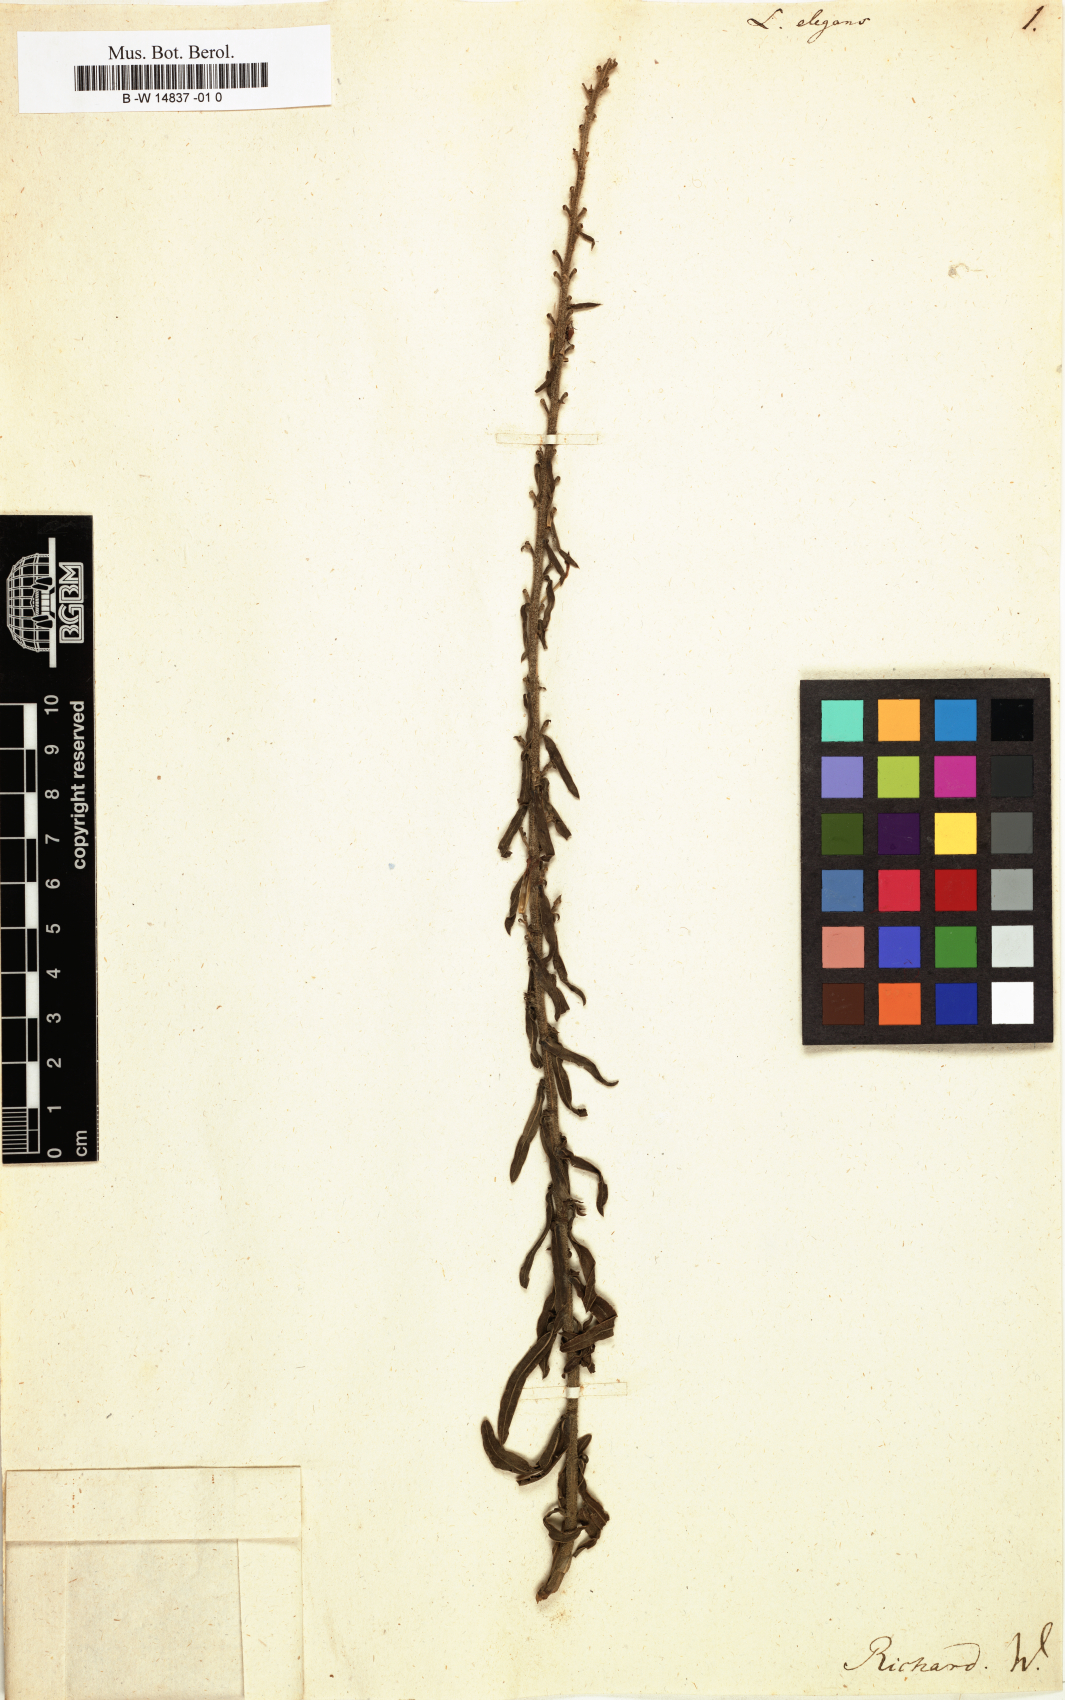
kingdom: Plantae
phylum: Tracheophyta
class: Magnoliopsida
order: Asterales
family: Asteraceae
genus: Liatris
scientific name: Liatris elegans
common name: Pinkscale gayfeather
